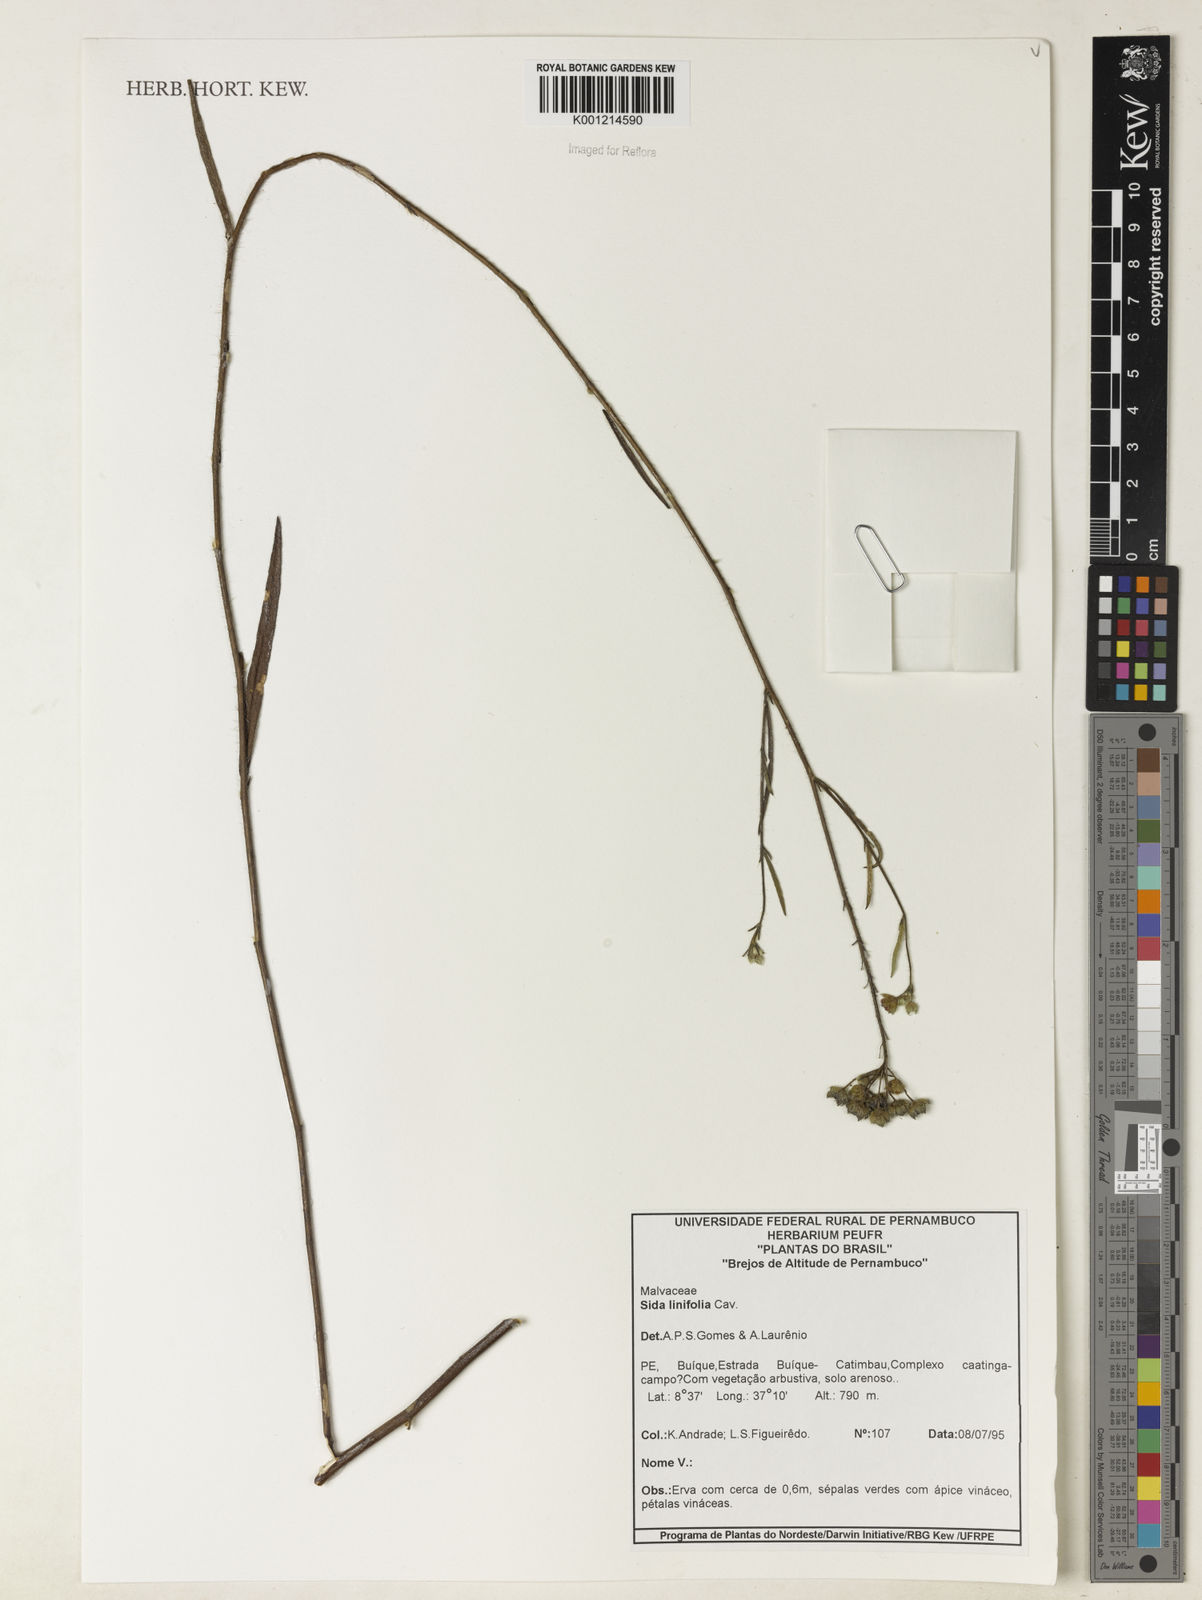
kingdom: Plantae
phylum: Tracheophyta
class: Magnoliopsida
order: Malvales
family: Malvaceae
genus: Sida
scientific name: Sida linifolia
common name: Flaxleaf fanpetals
